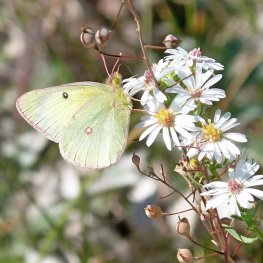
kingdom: Animalia
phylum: Arthropoda
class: Insecta
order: Lepidoptera
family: Pieridae
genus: Colias
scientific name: Colias interior
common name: Pink-edged Sulphur
